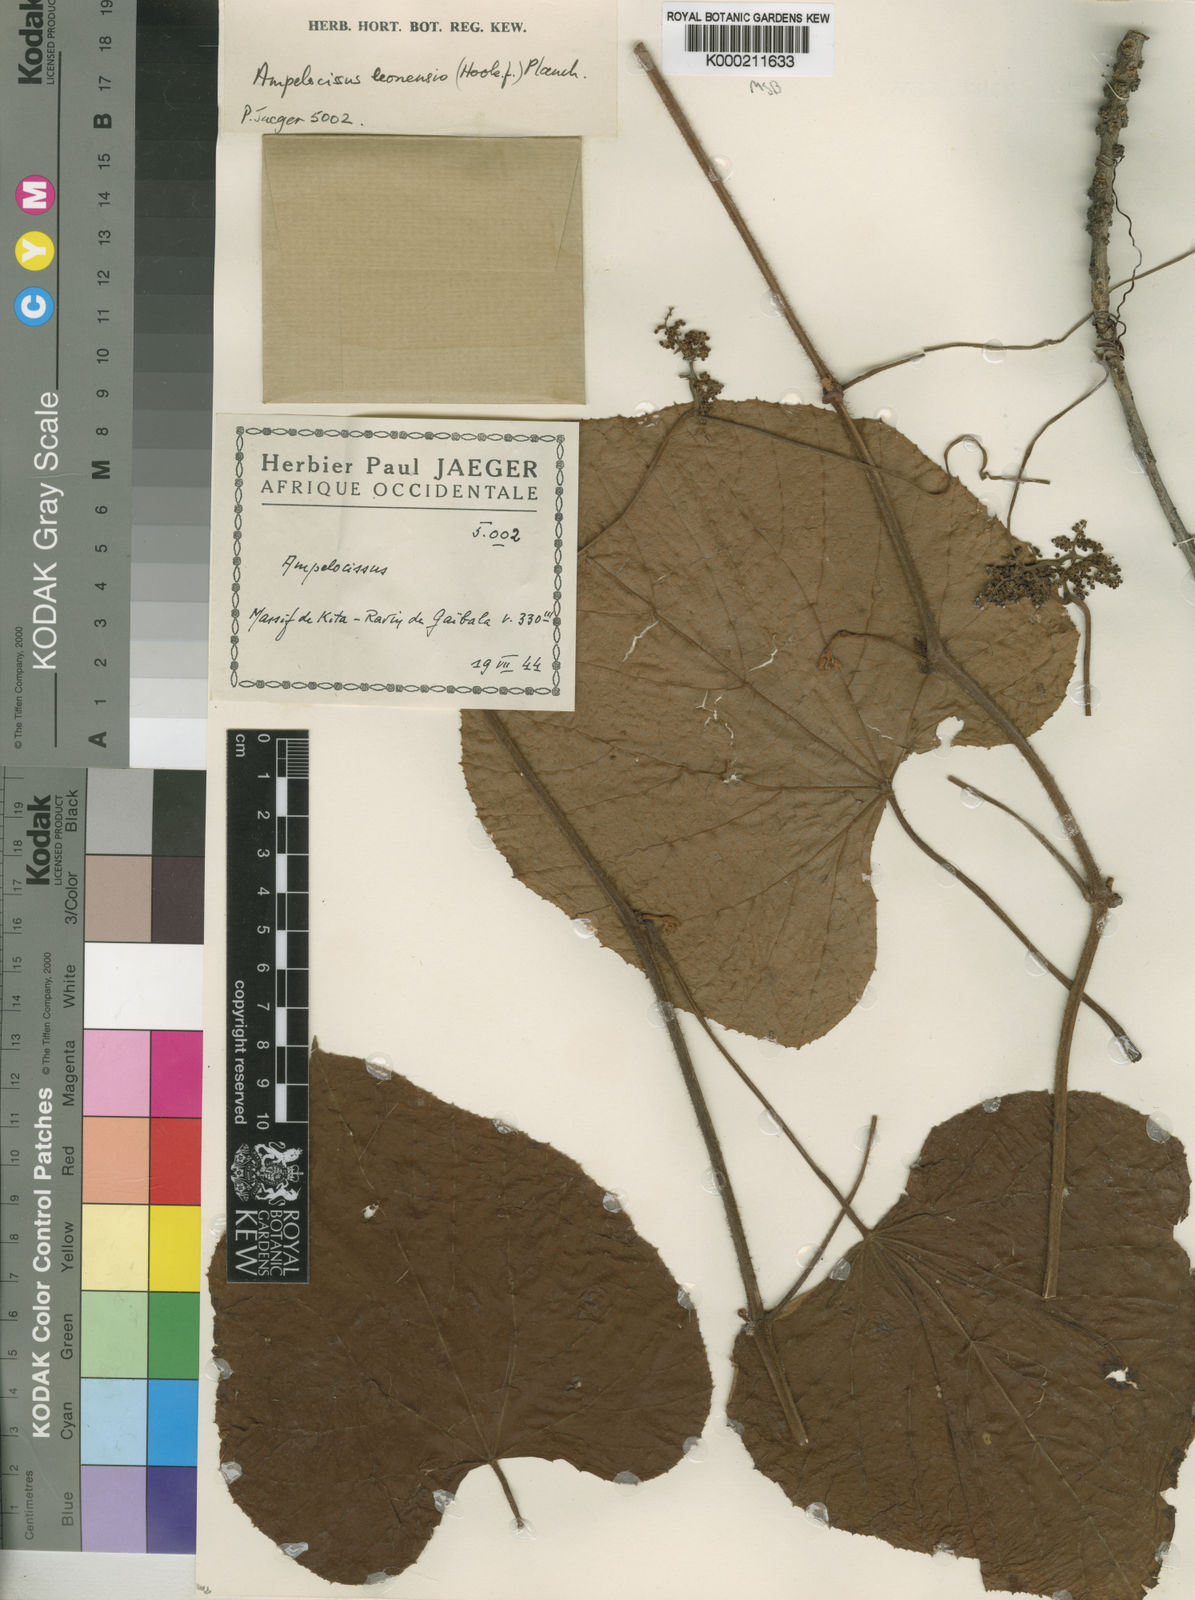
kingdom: Plantae
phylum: Tracheophyta
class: Magnoliopsida
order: Vitales
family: Vitaceae
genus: Ampelocissus
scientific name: Ampelocissus leonensis
